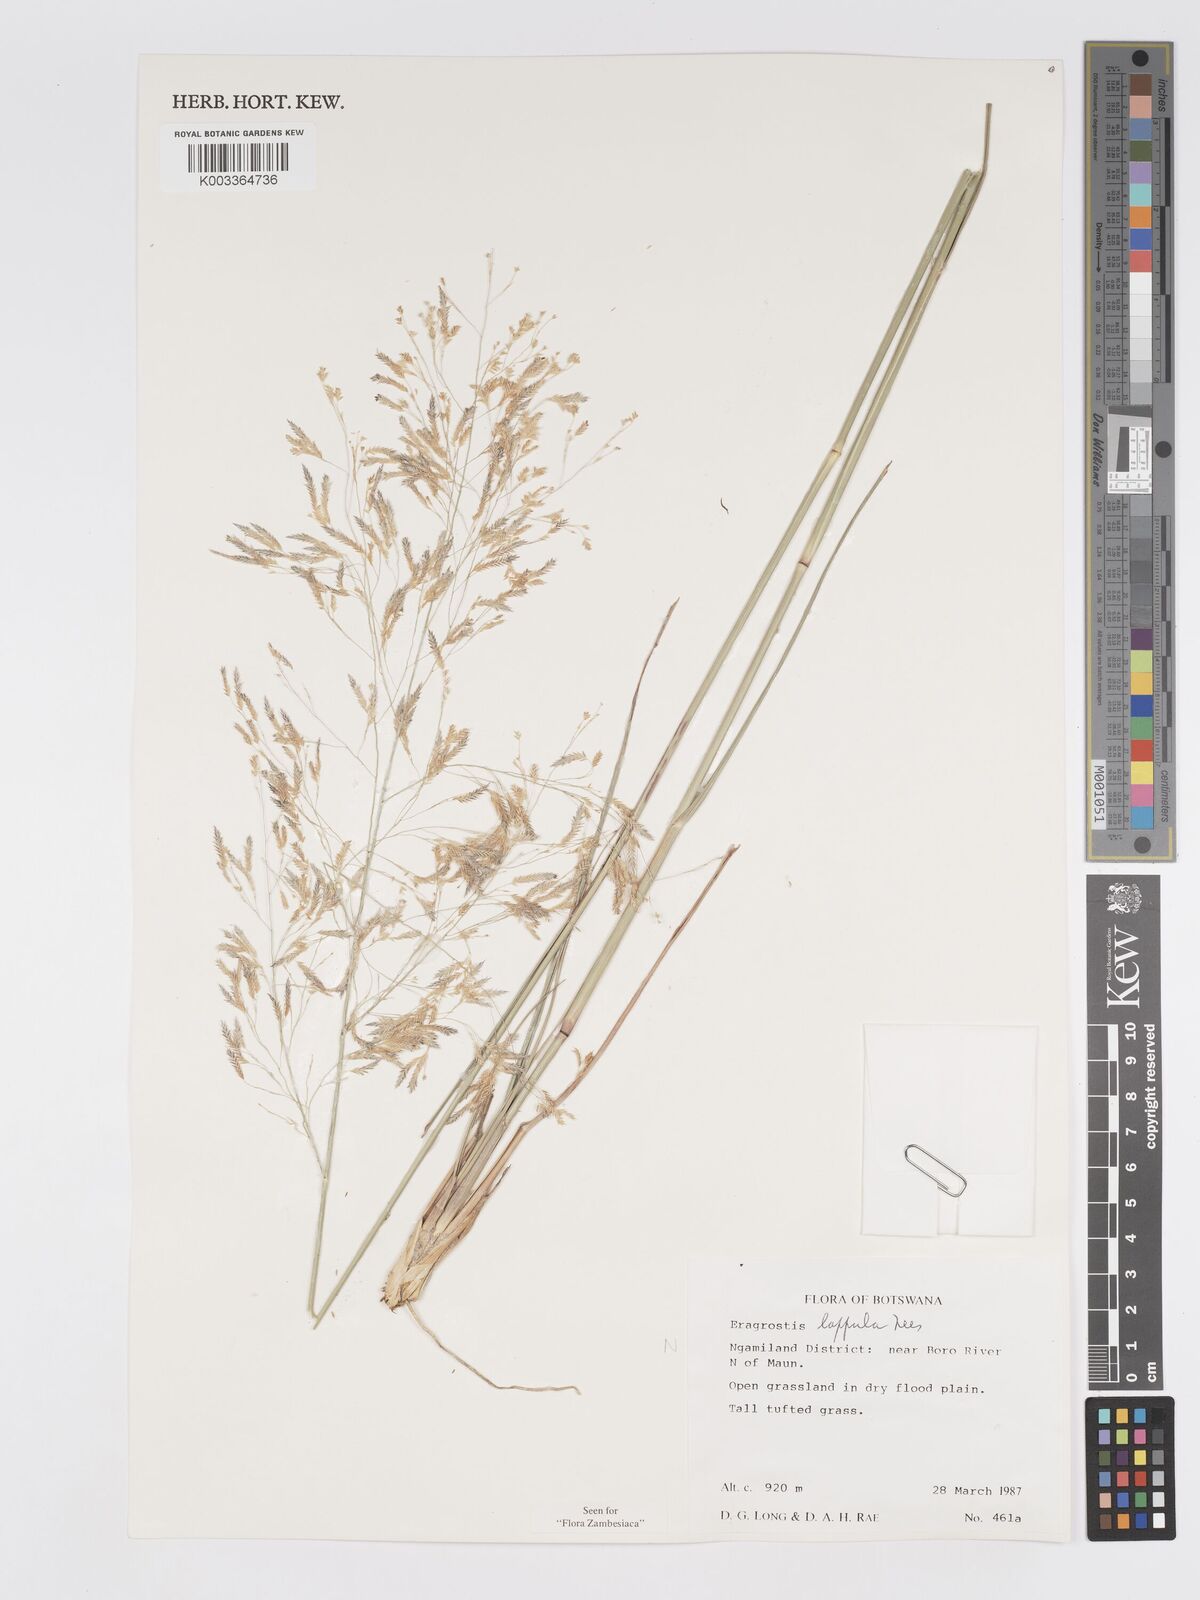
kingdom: Plantae
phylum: Tracheophyta
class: Liliopsida
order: Poales
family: Poaceae
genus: Eragrostis
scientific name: Eragrostis lappula
